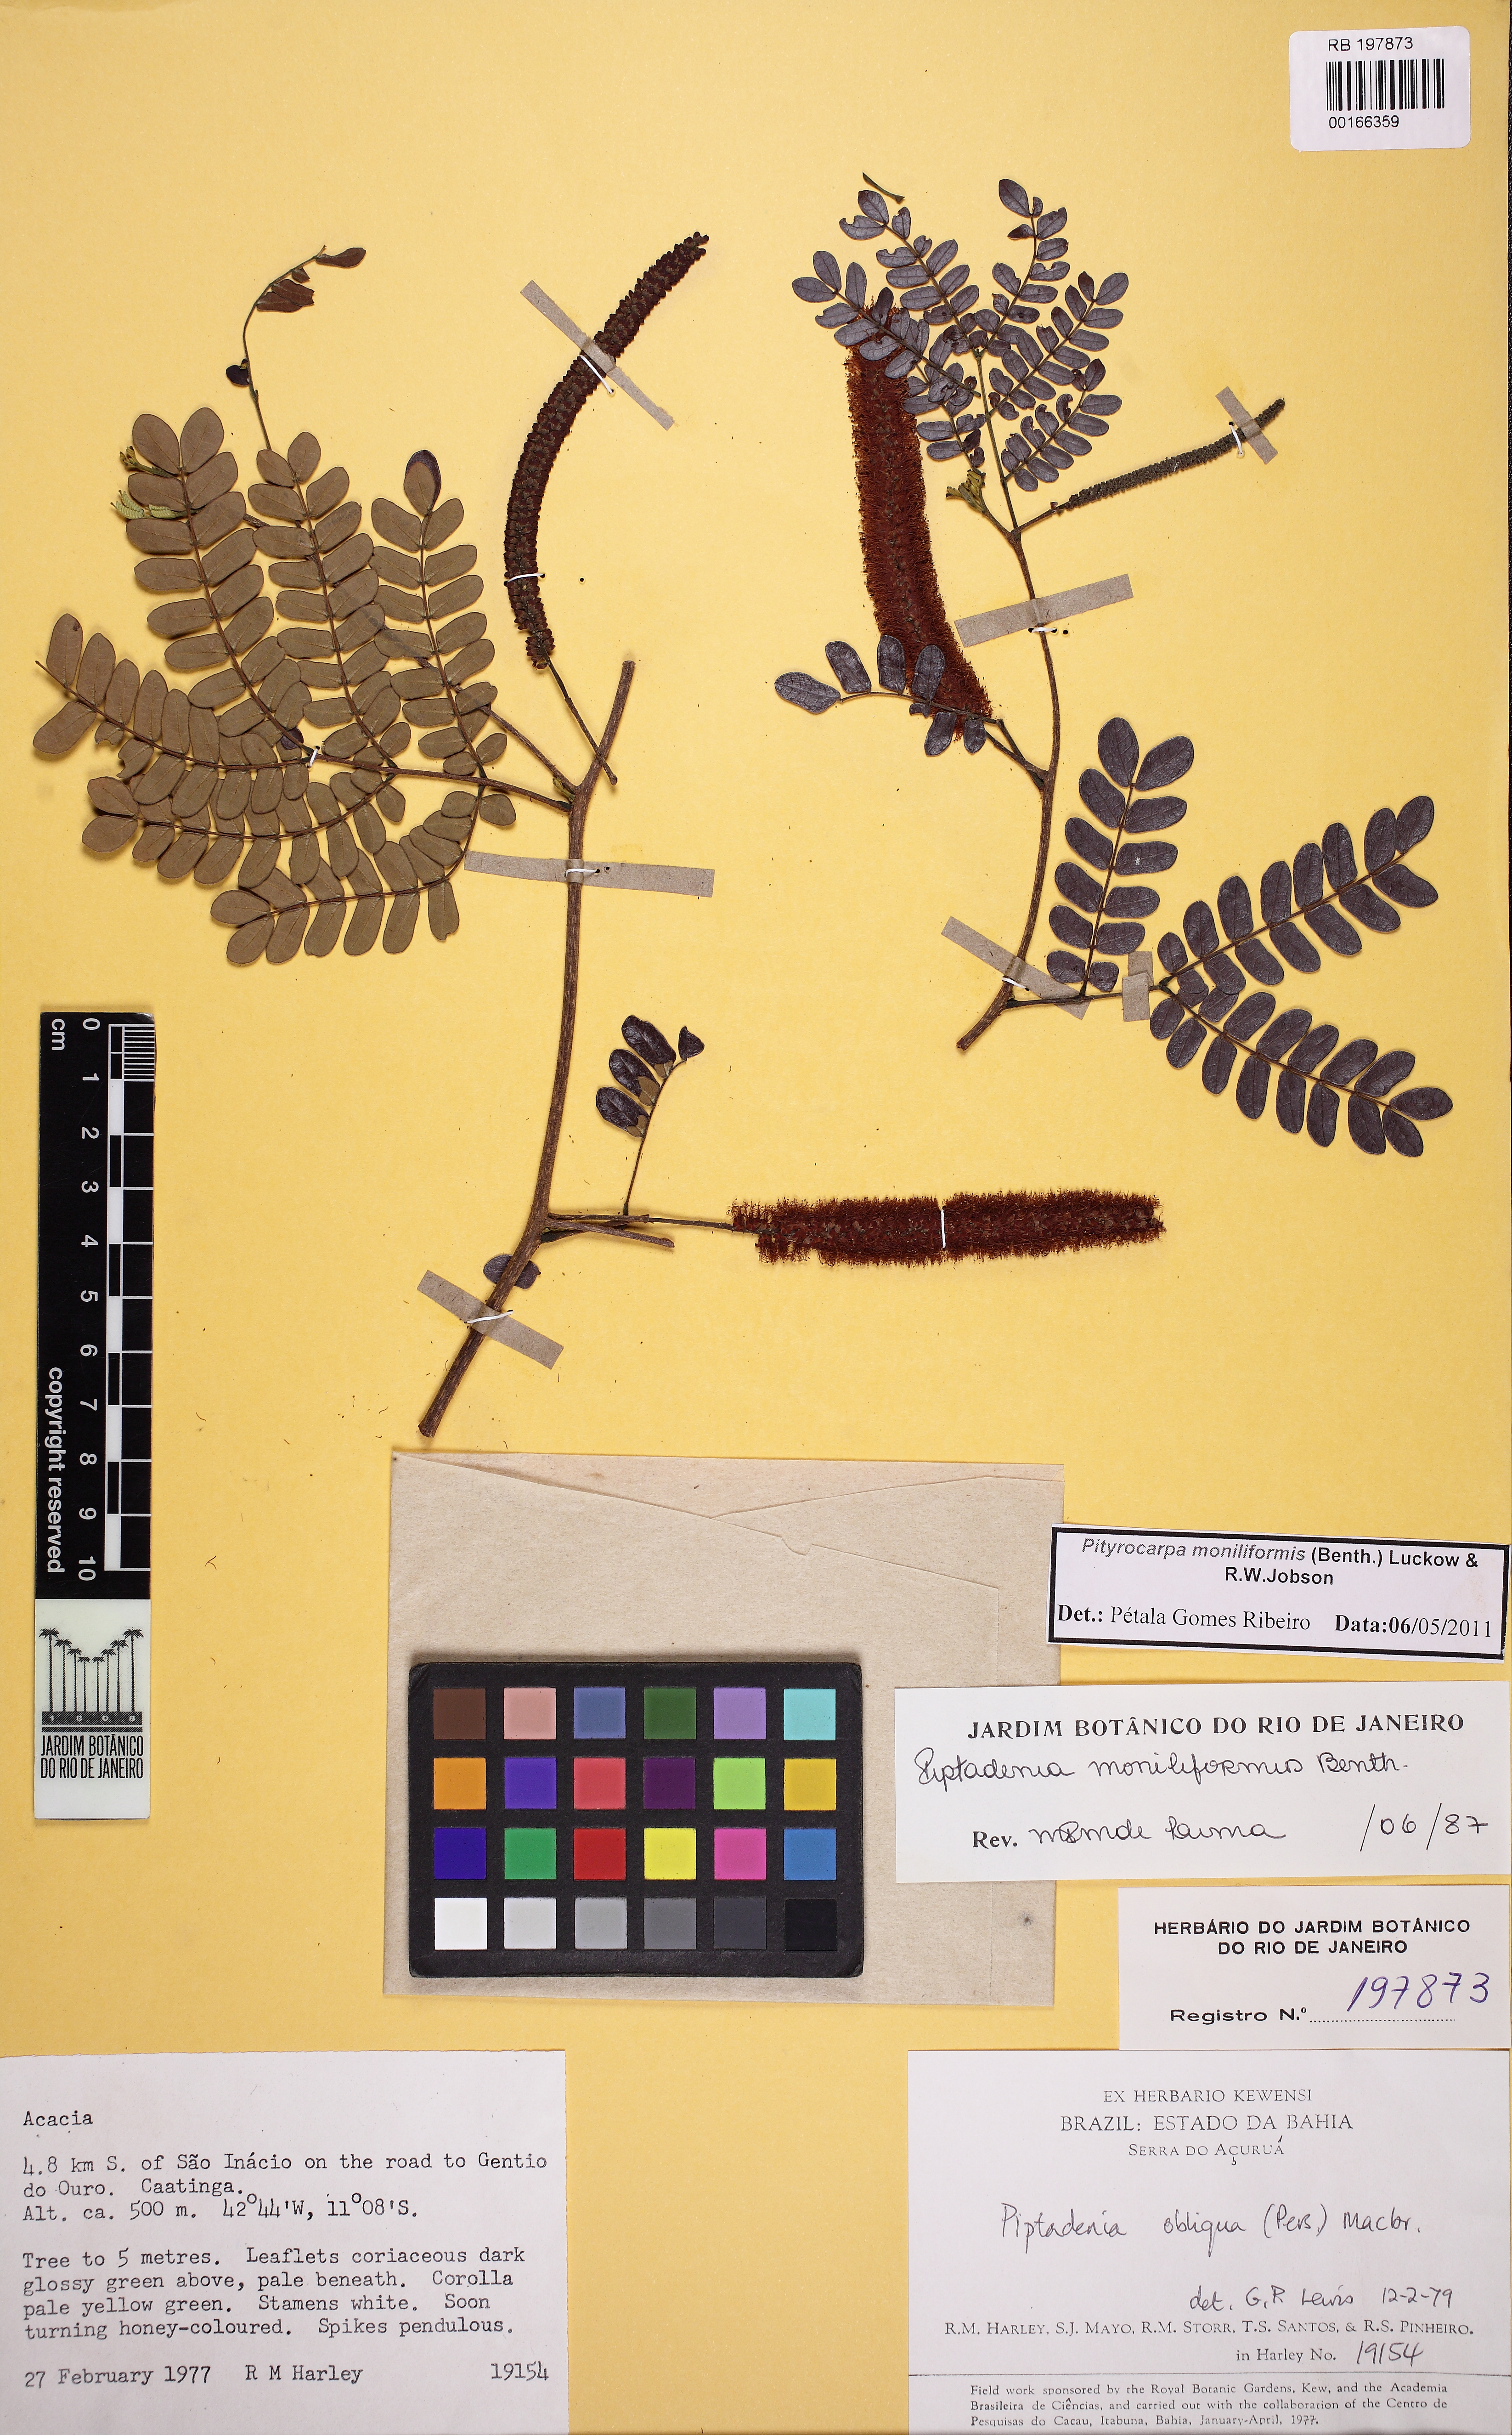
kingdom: Plantae
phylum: Tracheophyta
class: Magnoliopsida
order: Fabales
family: Fabaceae
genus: Pityrocarpa
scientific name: Pityrocarpa moniliformis
